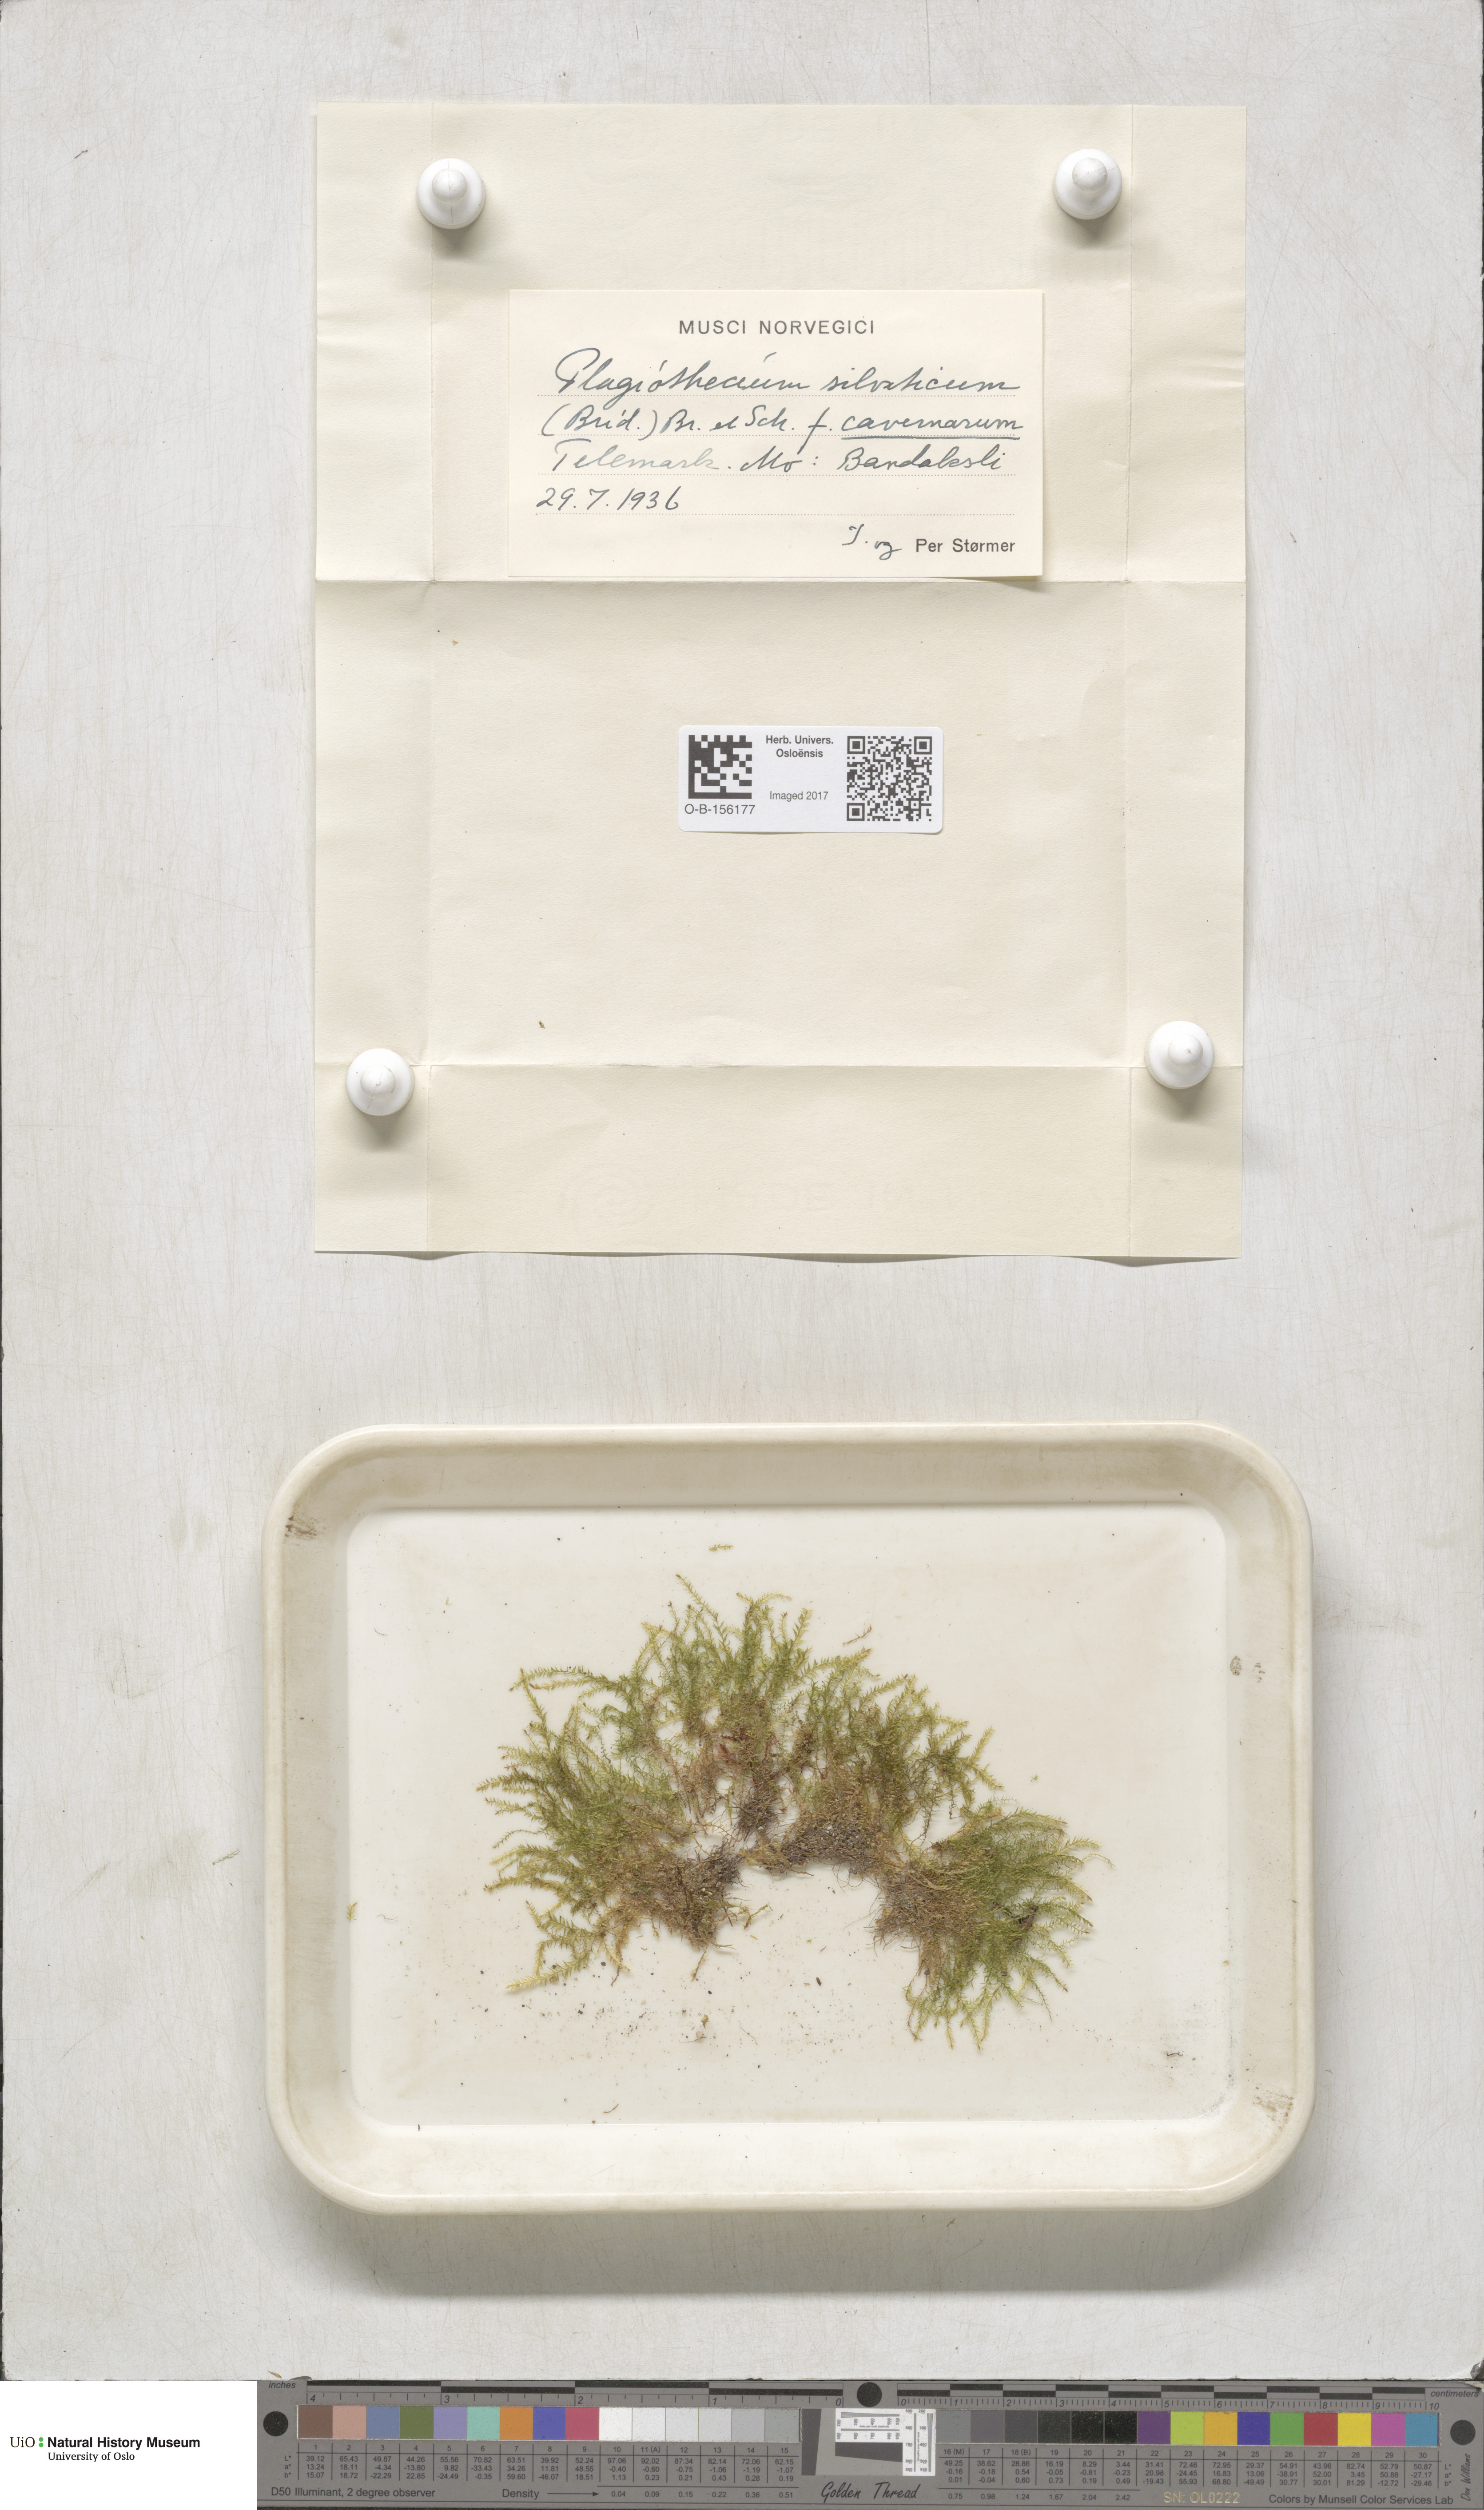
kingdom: Plantae
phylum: Bryophyta
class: Bryopsida
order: Hypnales
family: Plagiotheciaceae
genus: Plagiothecium
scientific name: Plagiothecium nemorale
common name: Woodsy silk-moss
